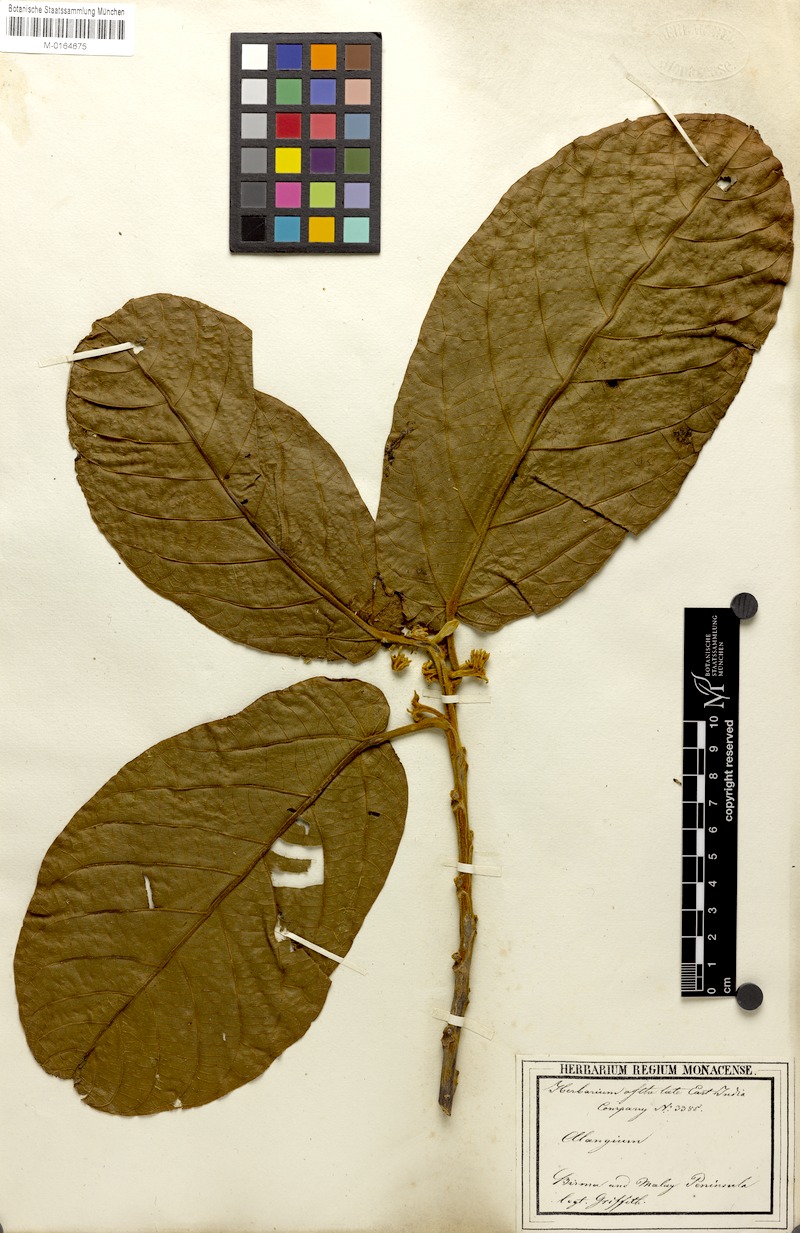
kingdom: Plantae
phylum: Tracheophyta
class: Magnoliopsida
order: Cornales
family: Cornaceae
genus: Alangium
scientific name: Alangium nobile
